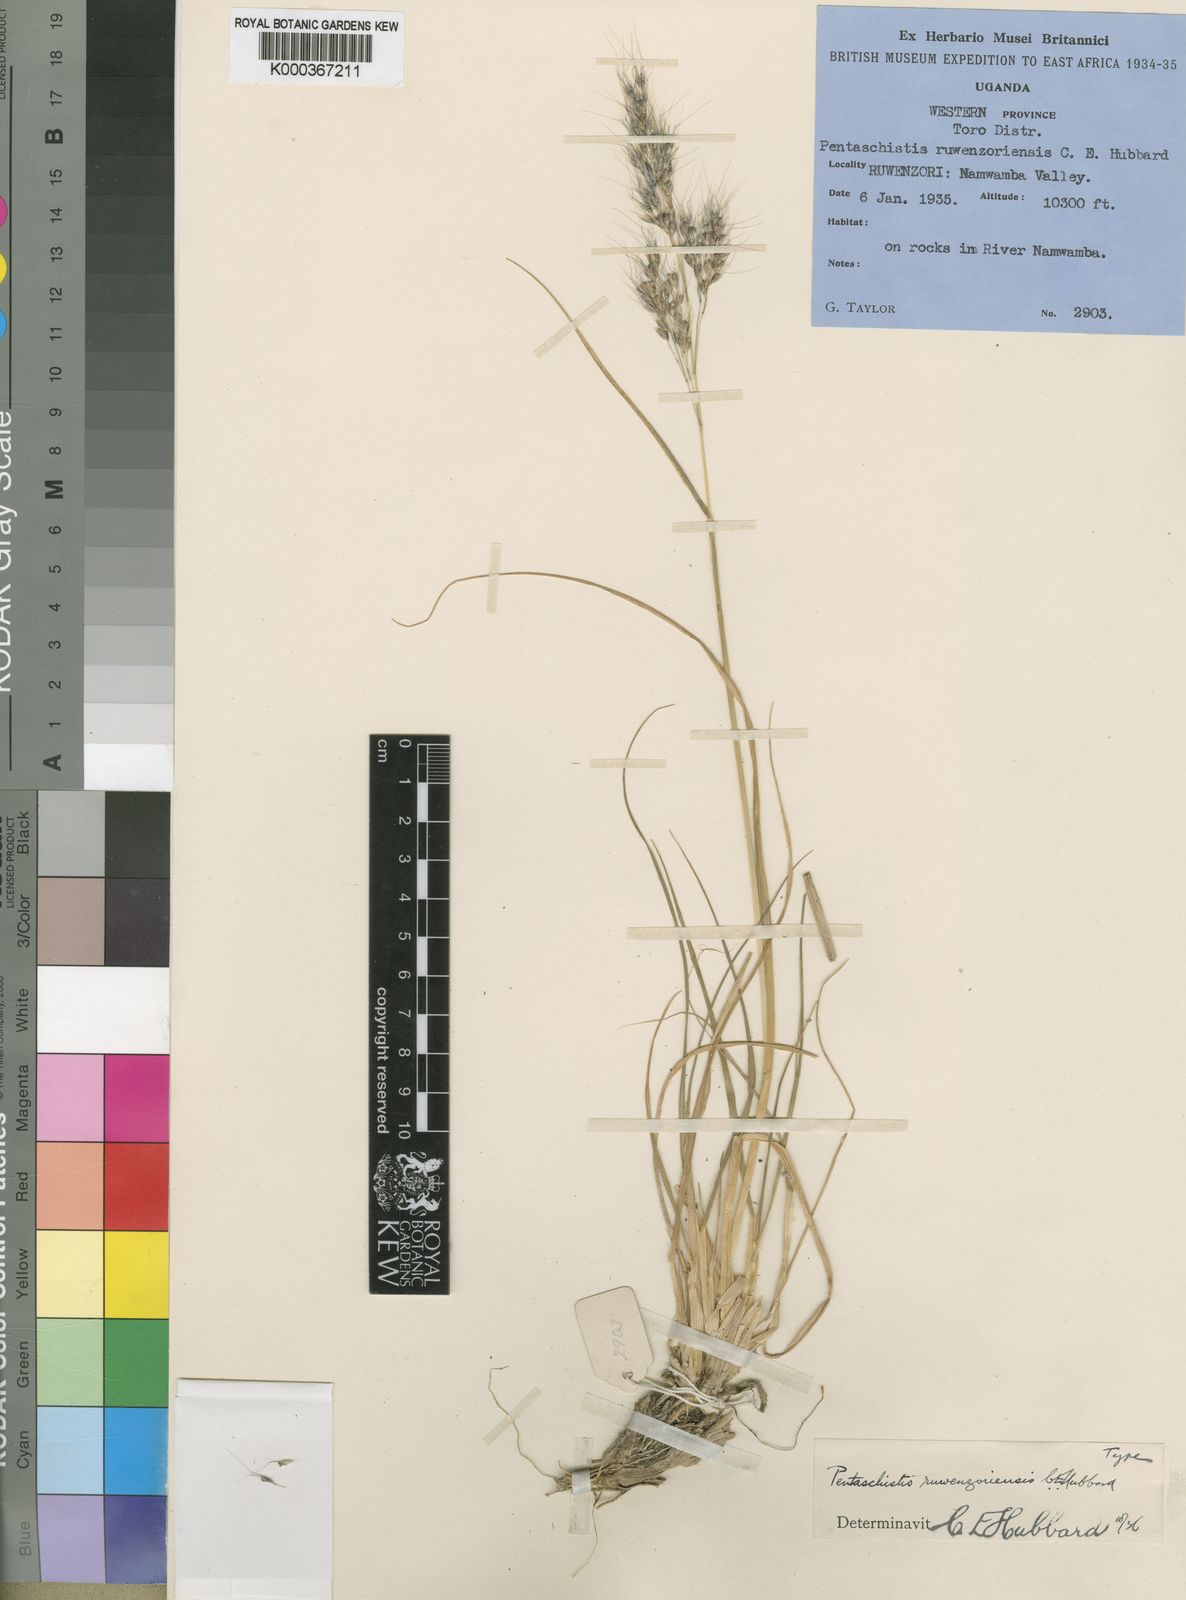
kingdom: Plantae
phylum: Tracheophyta
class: Liliopsida
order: Poales
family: Poaceae
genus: Pentameris
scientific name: Pentameris borussica
